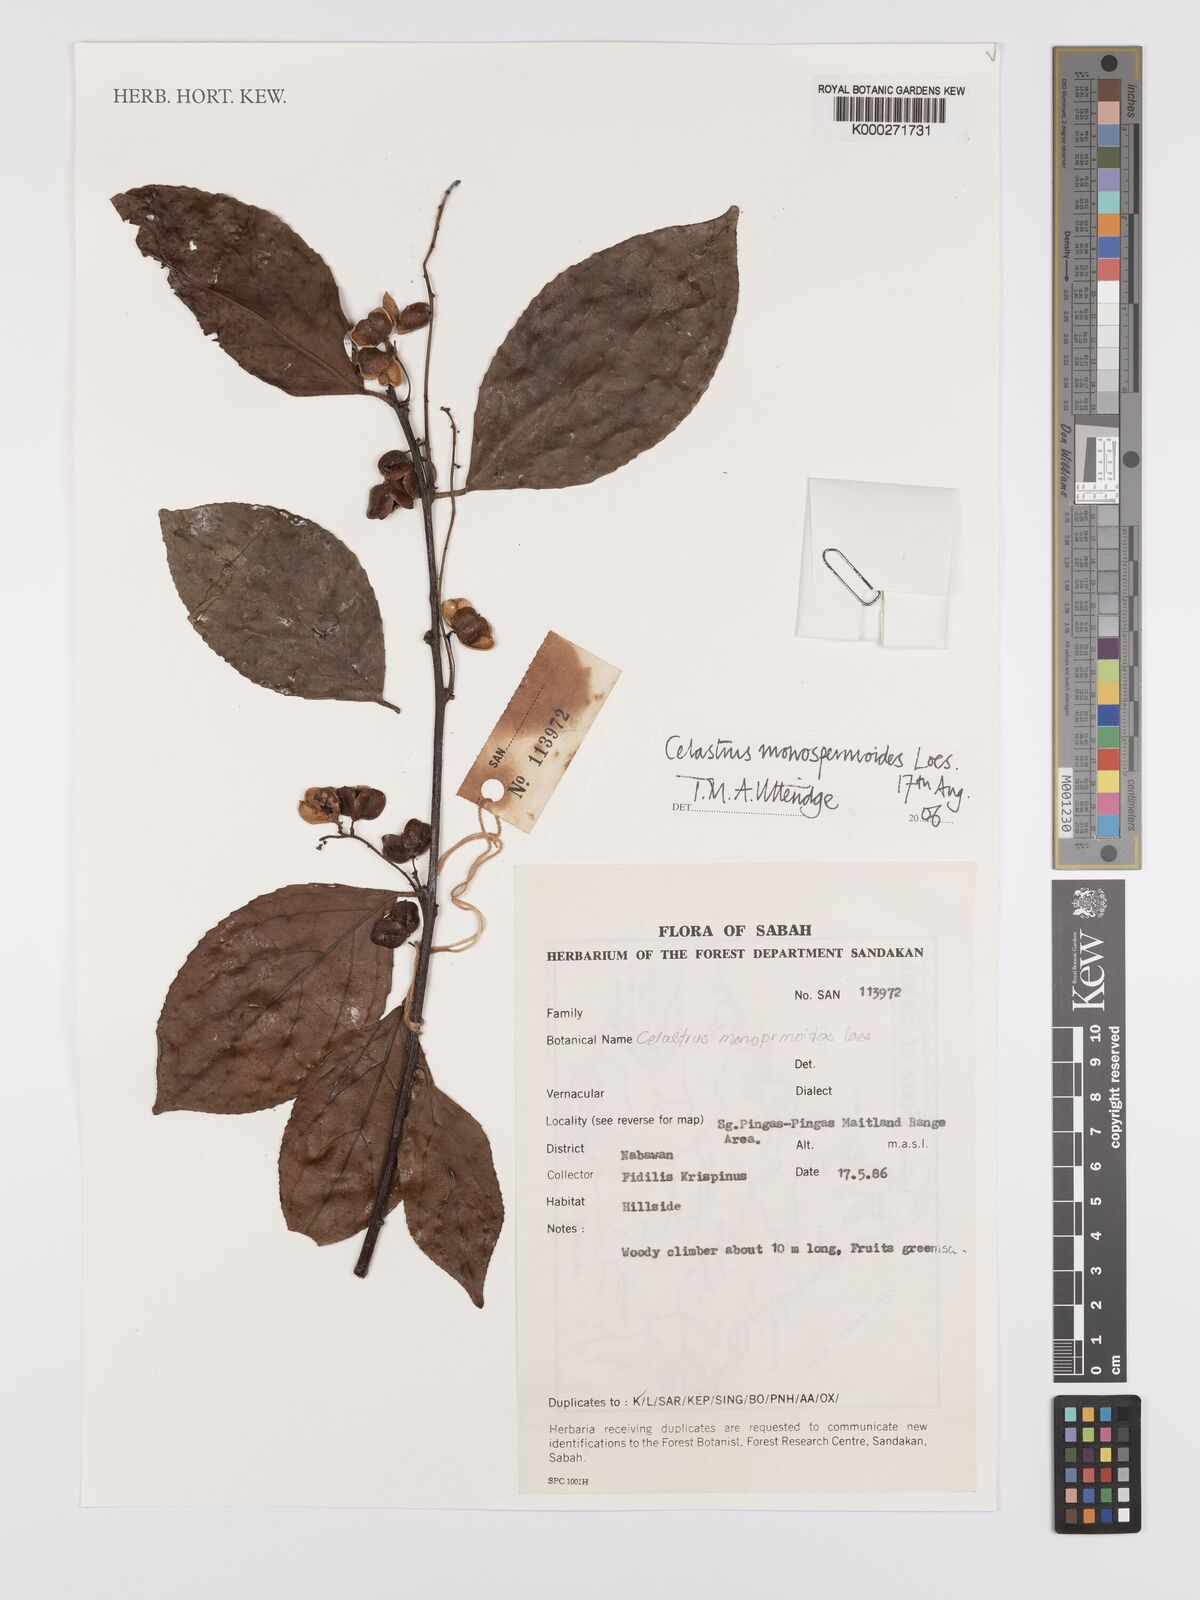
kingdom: Plantae
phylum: Tracheophyta
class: Magnoliopsida
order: Celastrales
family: Celastraceae
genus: Celastrus
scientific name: Celastrus monospermoides
